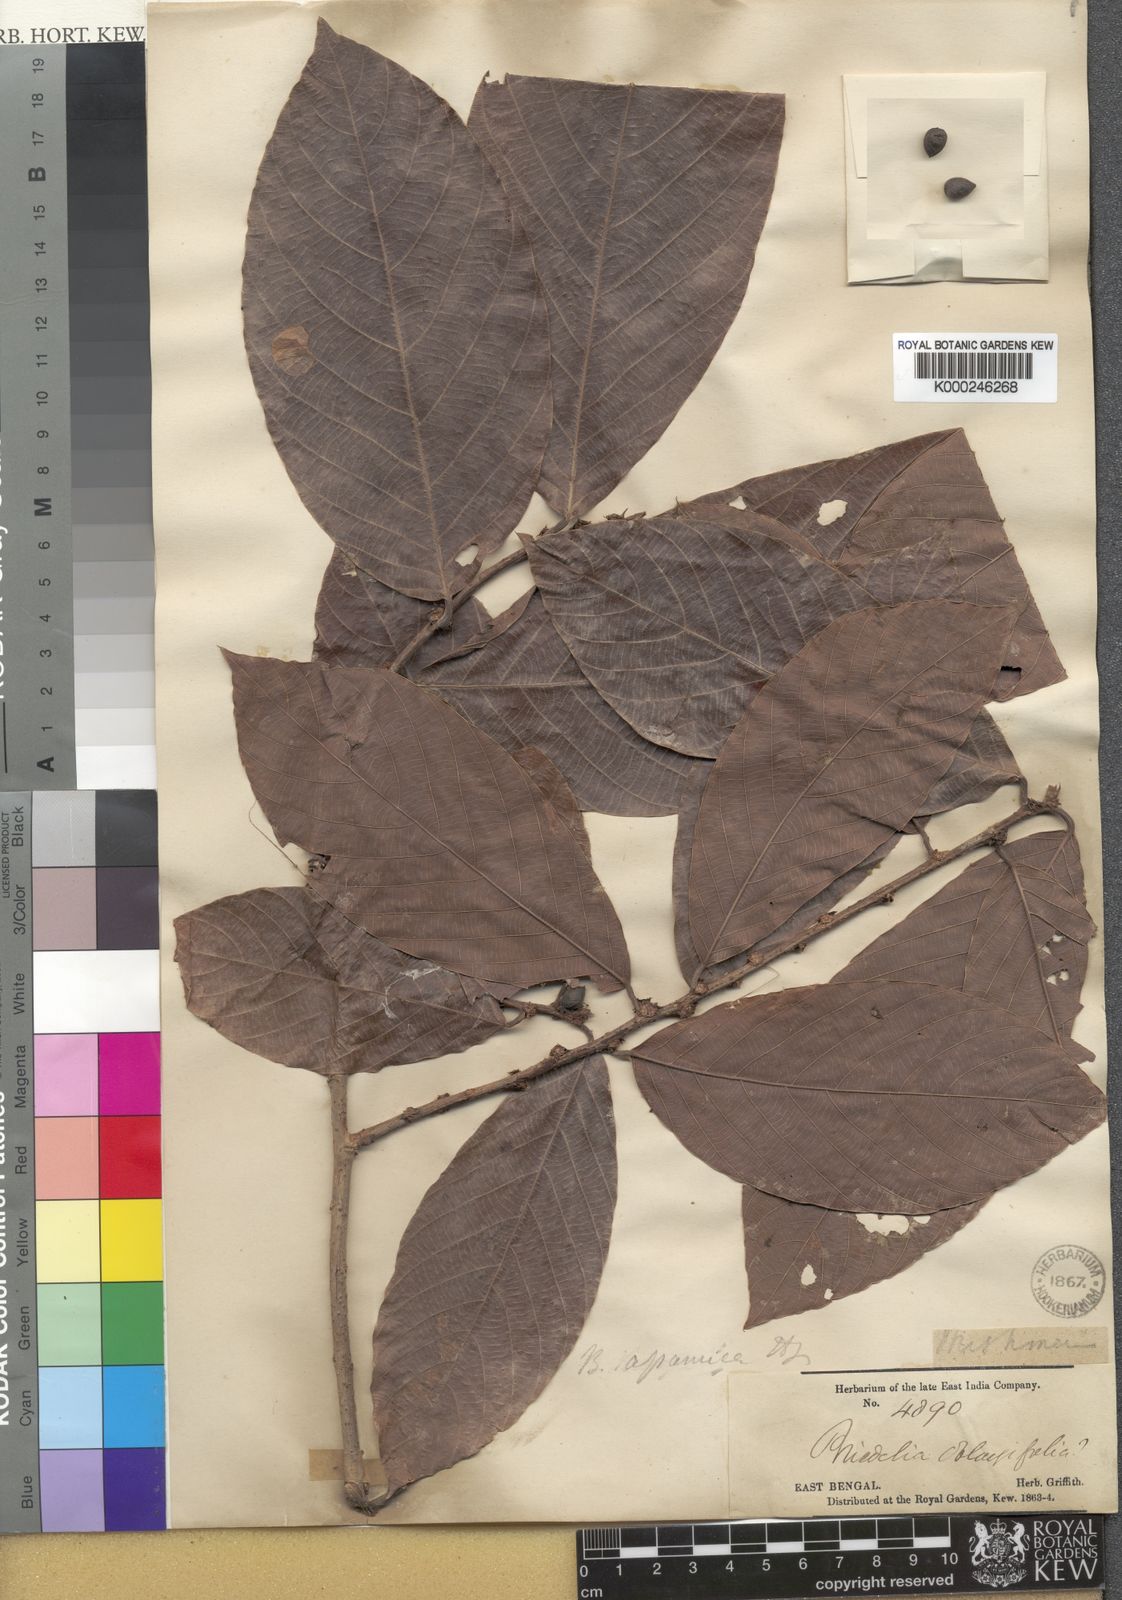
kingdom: Plantae
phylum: Tracheophyta
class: Magnoliopsida
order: Malpighiales
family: Phyllanthaceae
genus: Bridelia
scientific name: Bridelia assamica
